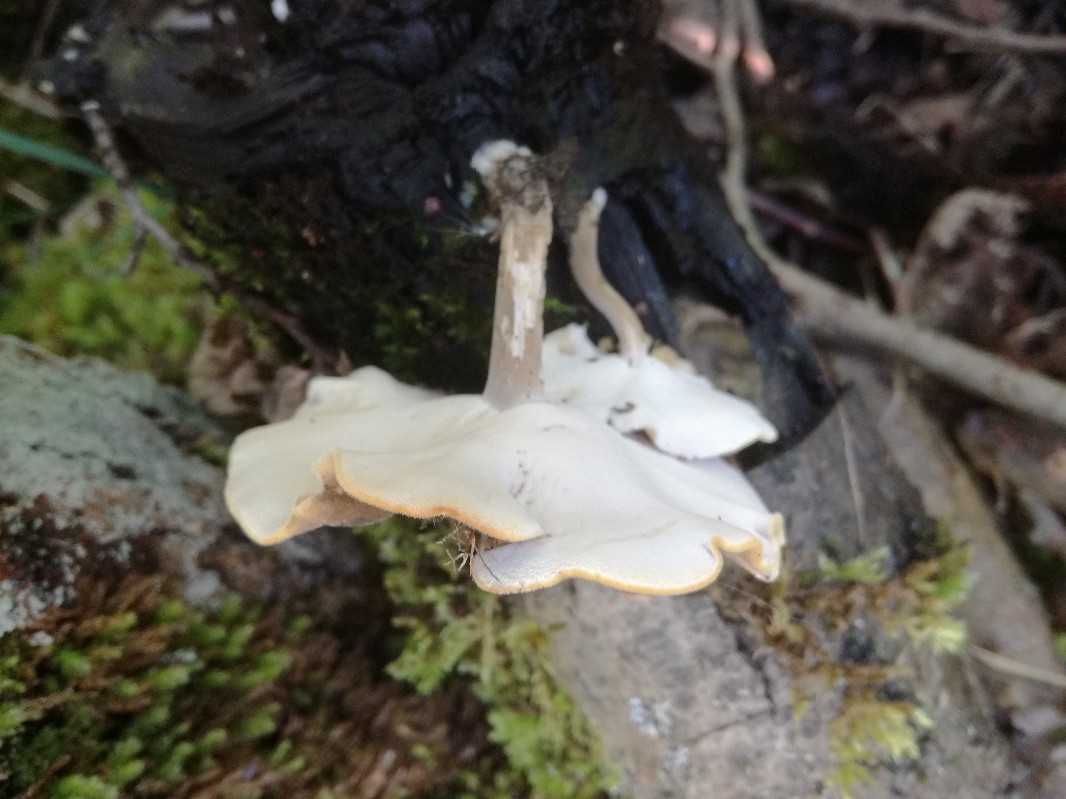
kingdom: Fungi
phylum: Basidiomycota
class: Agaricomycetes
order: Polyporales
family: Polyporaceae
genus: Lentinus
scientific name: Lentinus substrictus
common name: forårs-stilkporesvamp
